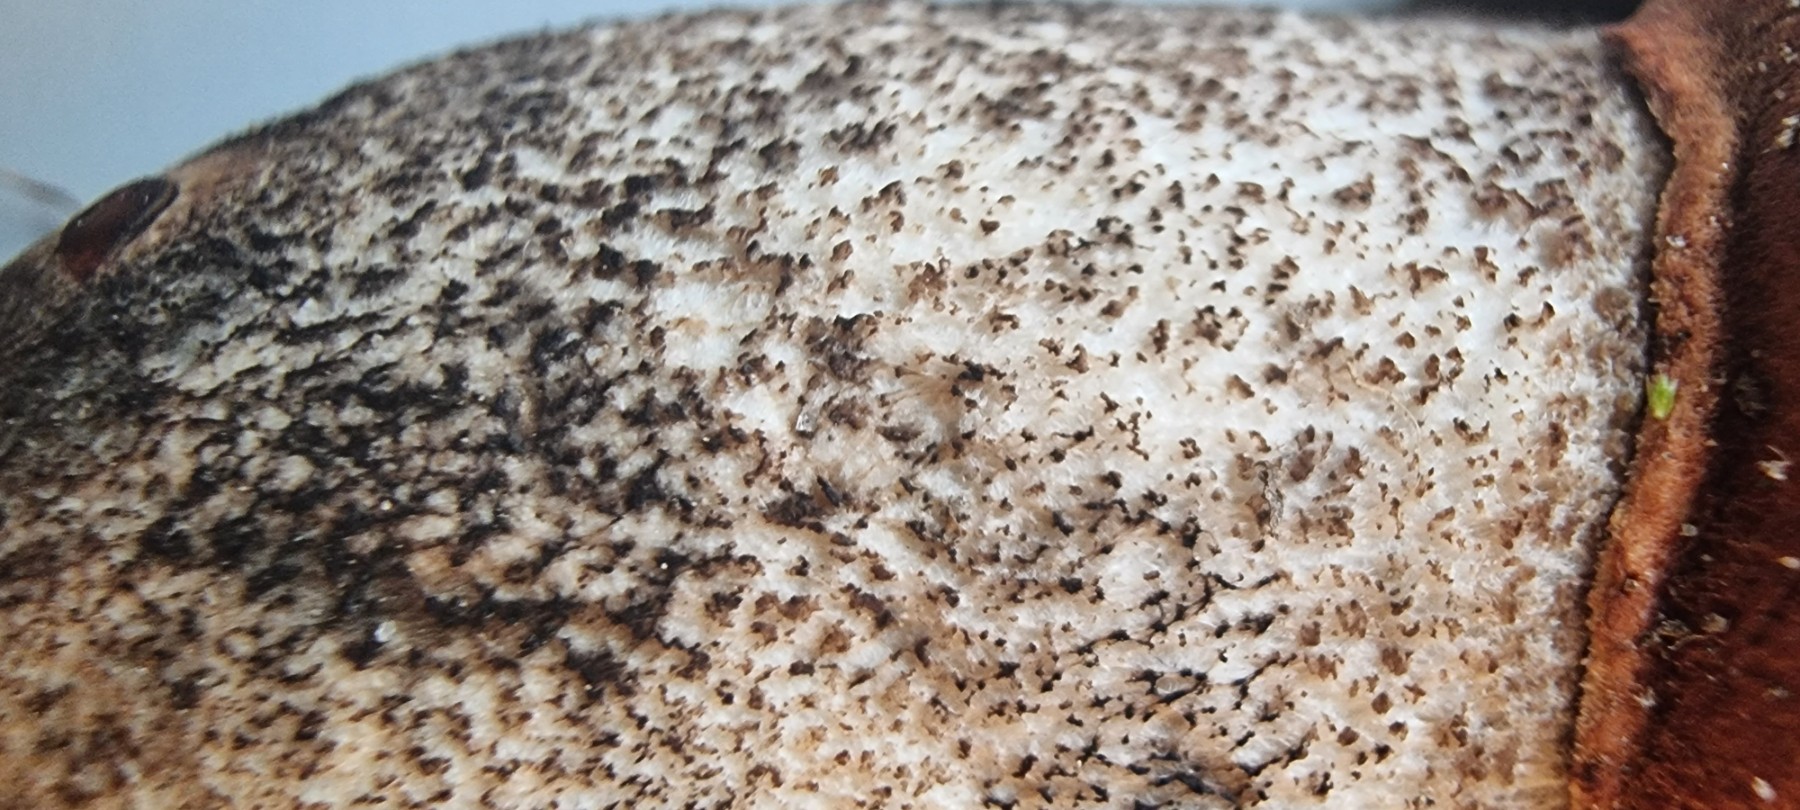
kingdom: Fungi
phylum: Basidiomycota
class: Agaricomycetes
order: Boletales
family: Boletaceae
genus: Leccinum
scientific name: Leccinum versipelle
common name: orange skælrørhat
